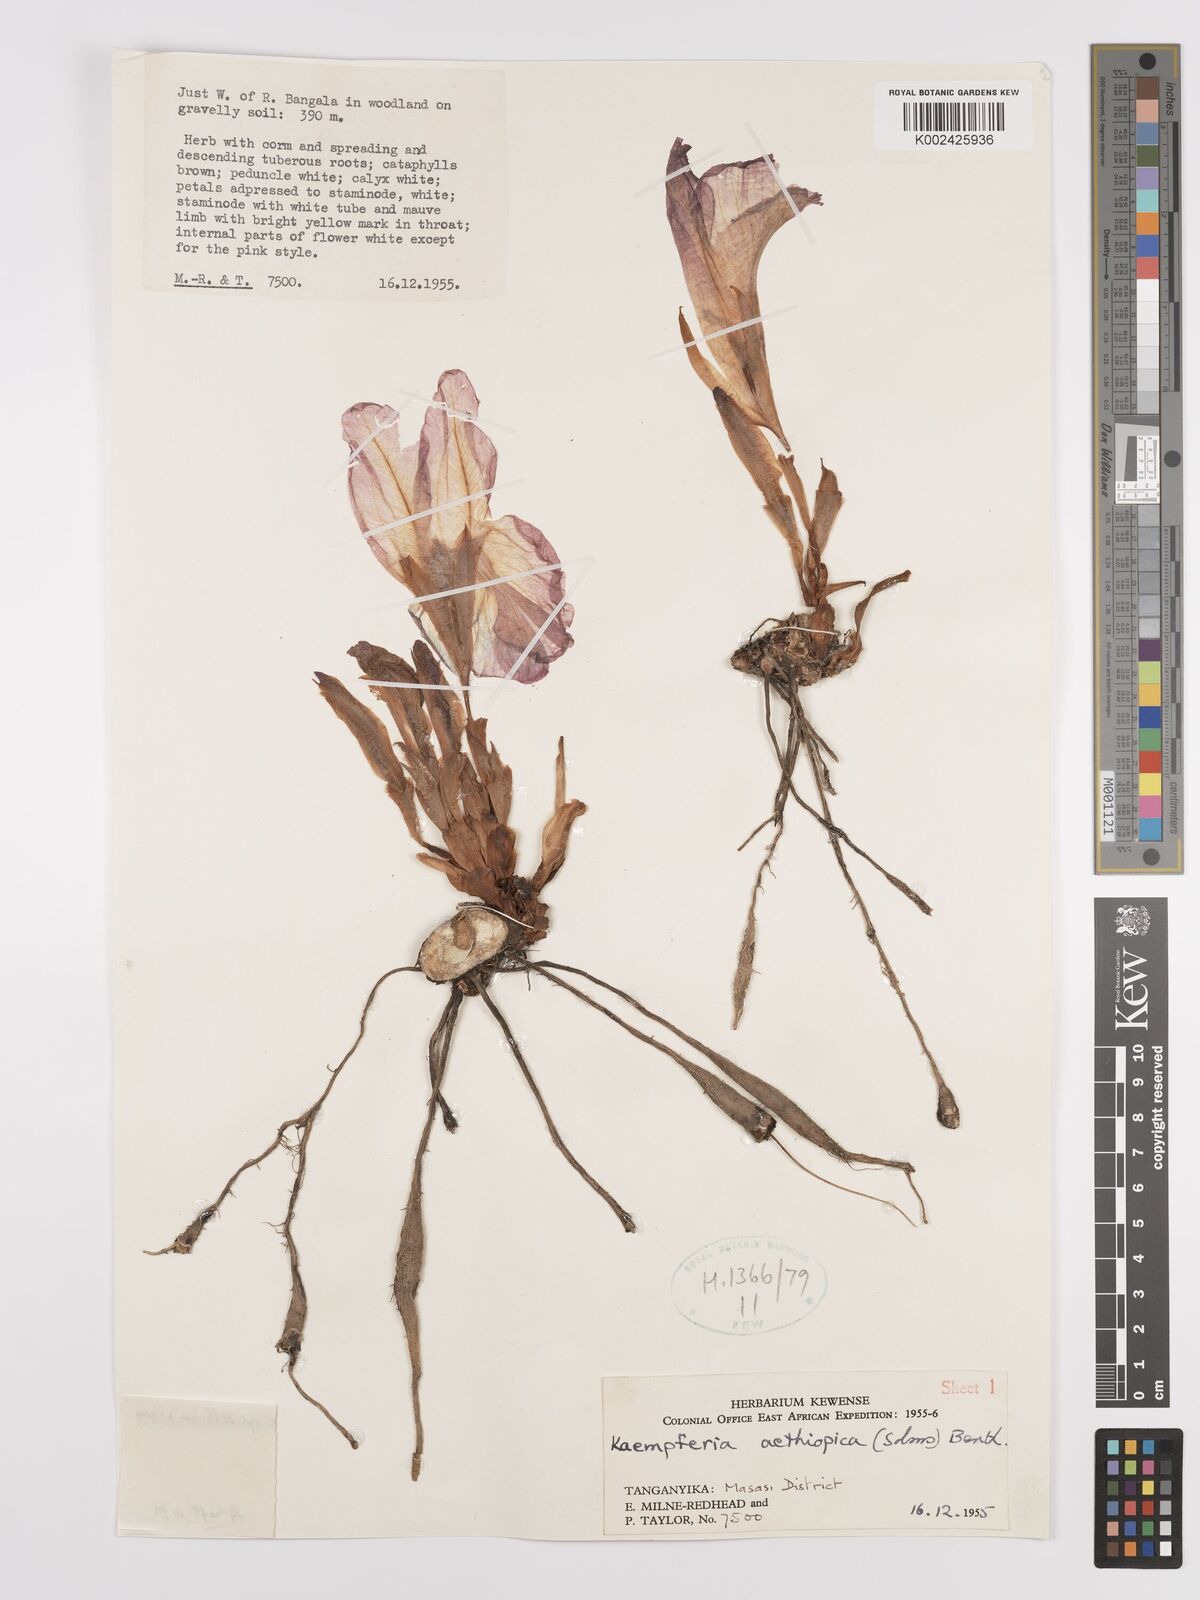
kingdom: Plantae
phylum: Tracheophyta
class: Liliopsida
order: Zingiberales
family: Zingiberaceae
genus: Siphonochilus
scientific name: Siphonochilus aethiopicus
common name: African-ginger
